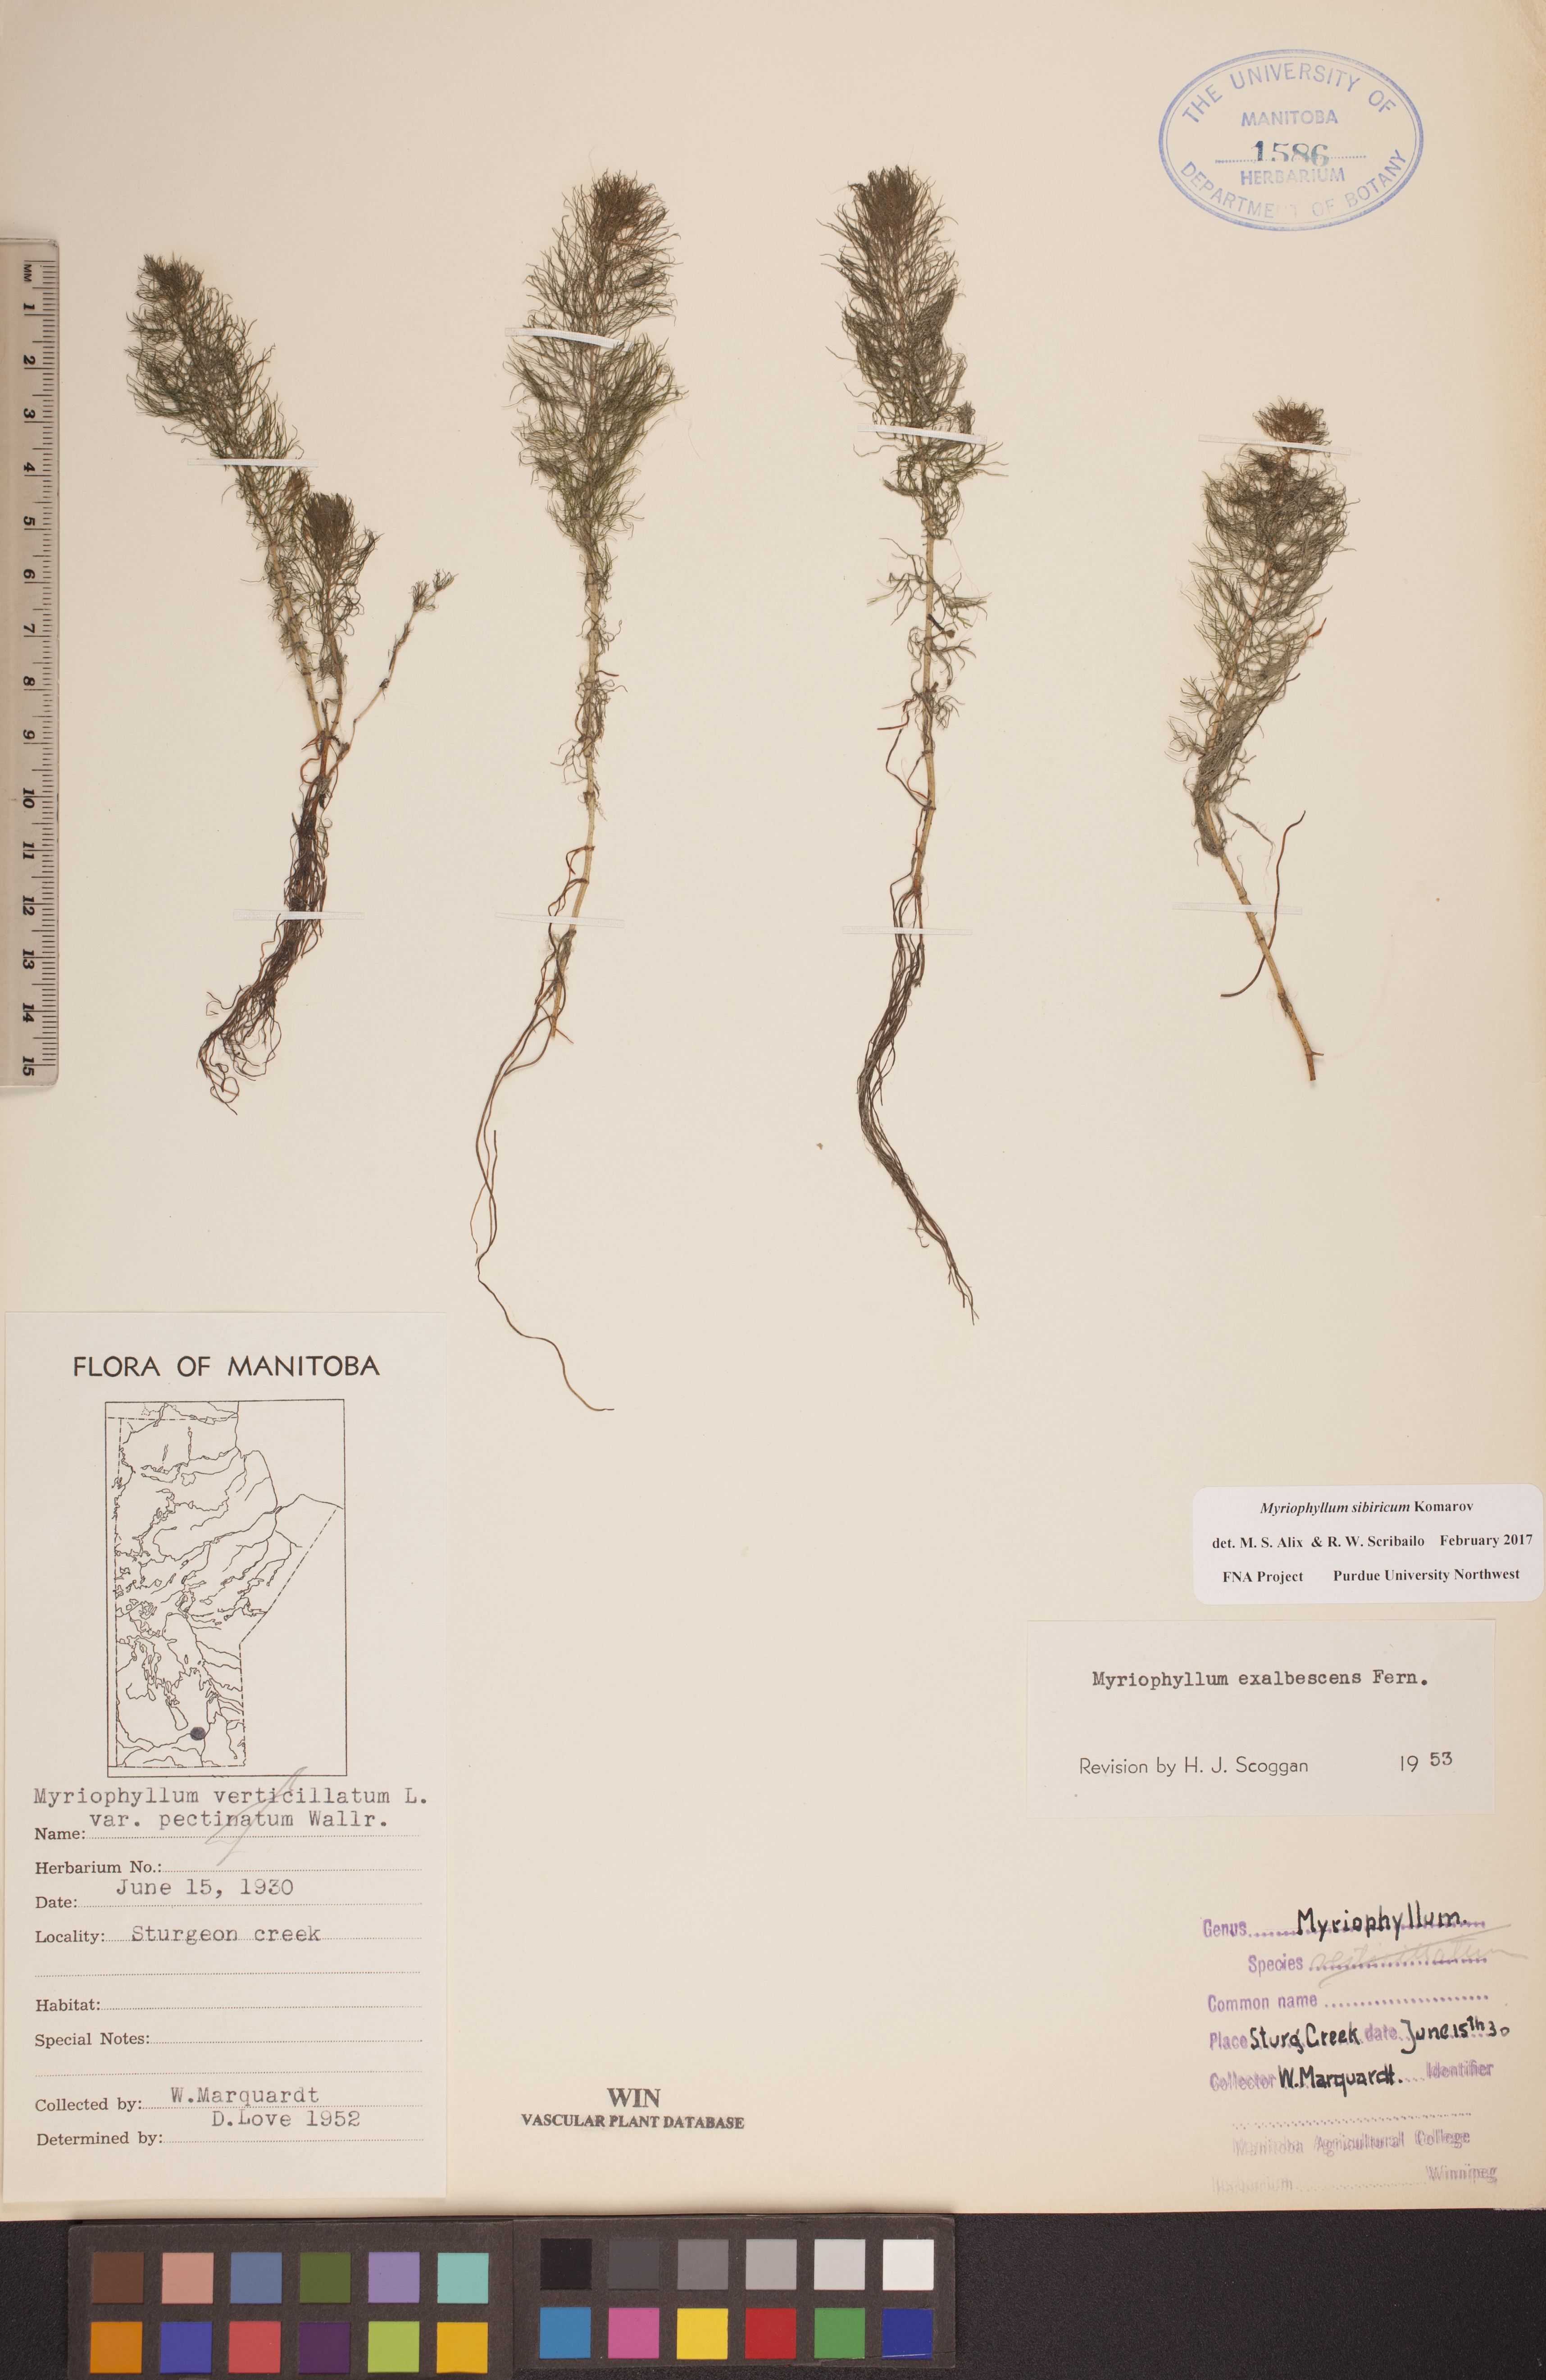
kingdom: Plantae
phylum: Tracheophyta
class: Magnoliopsida
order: Saxifragales
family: Haloragaceae
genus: Myriophyllum
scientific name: Myriophyllum sibiricum
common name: Siberian water-milfoil
